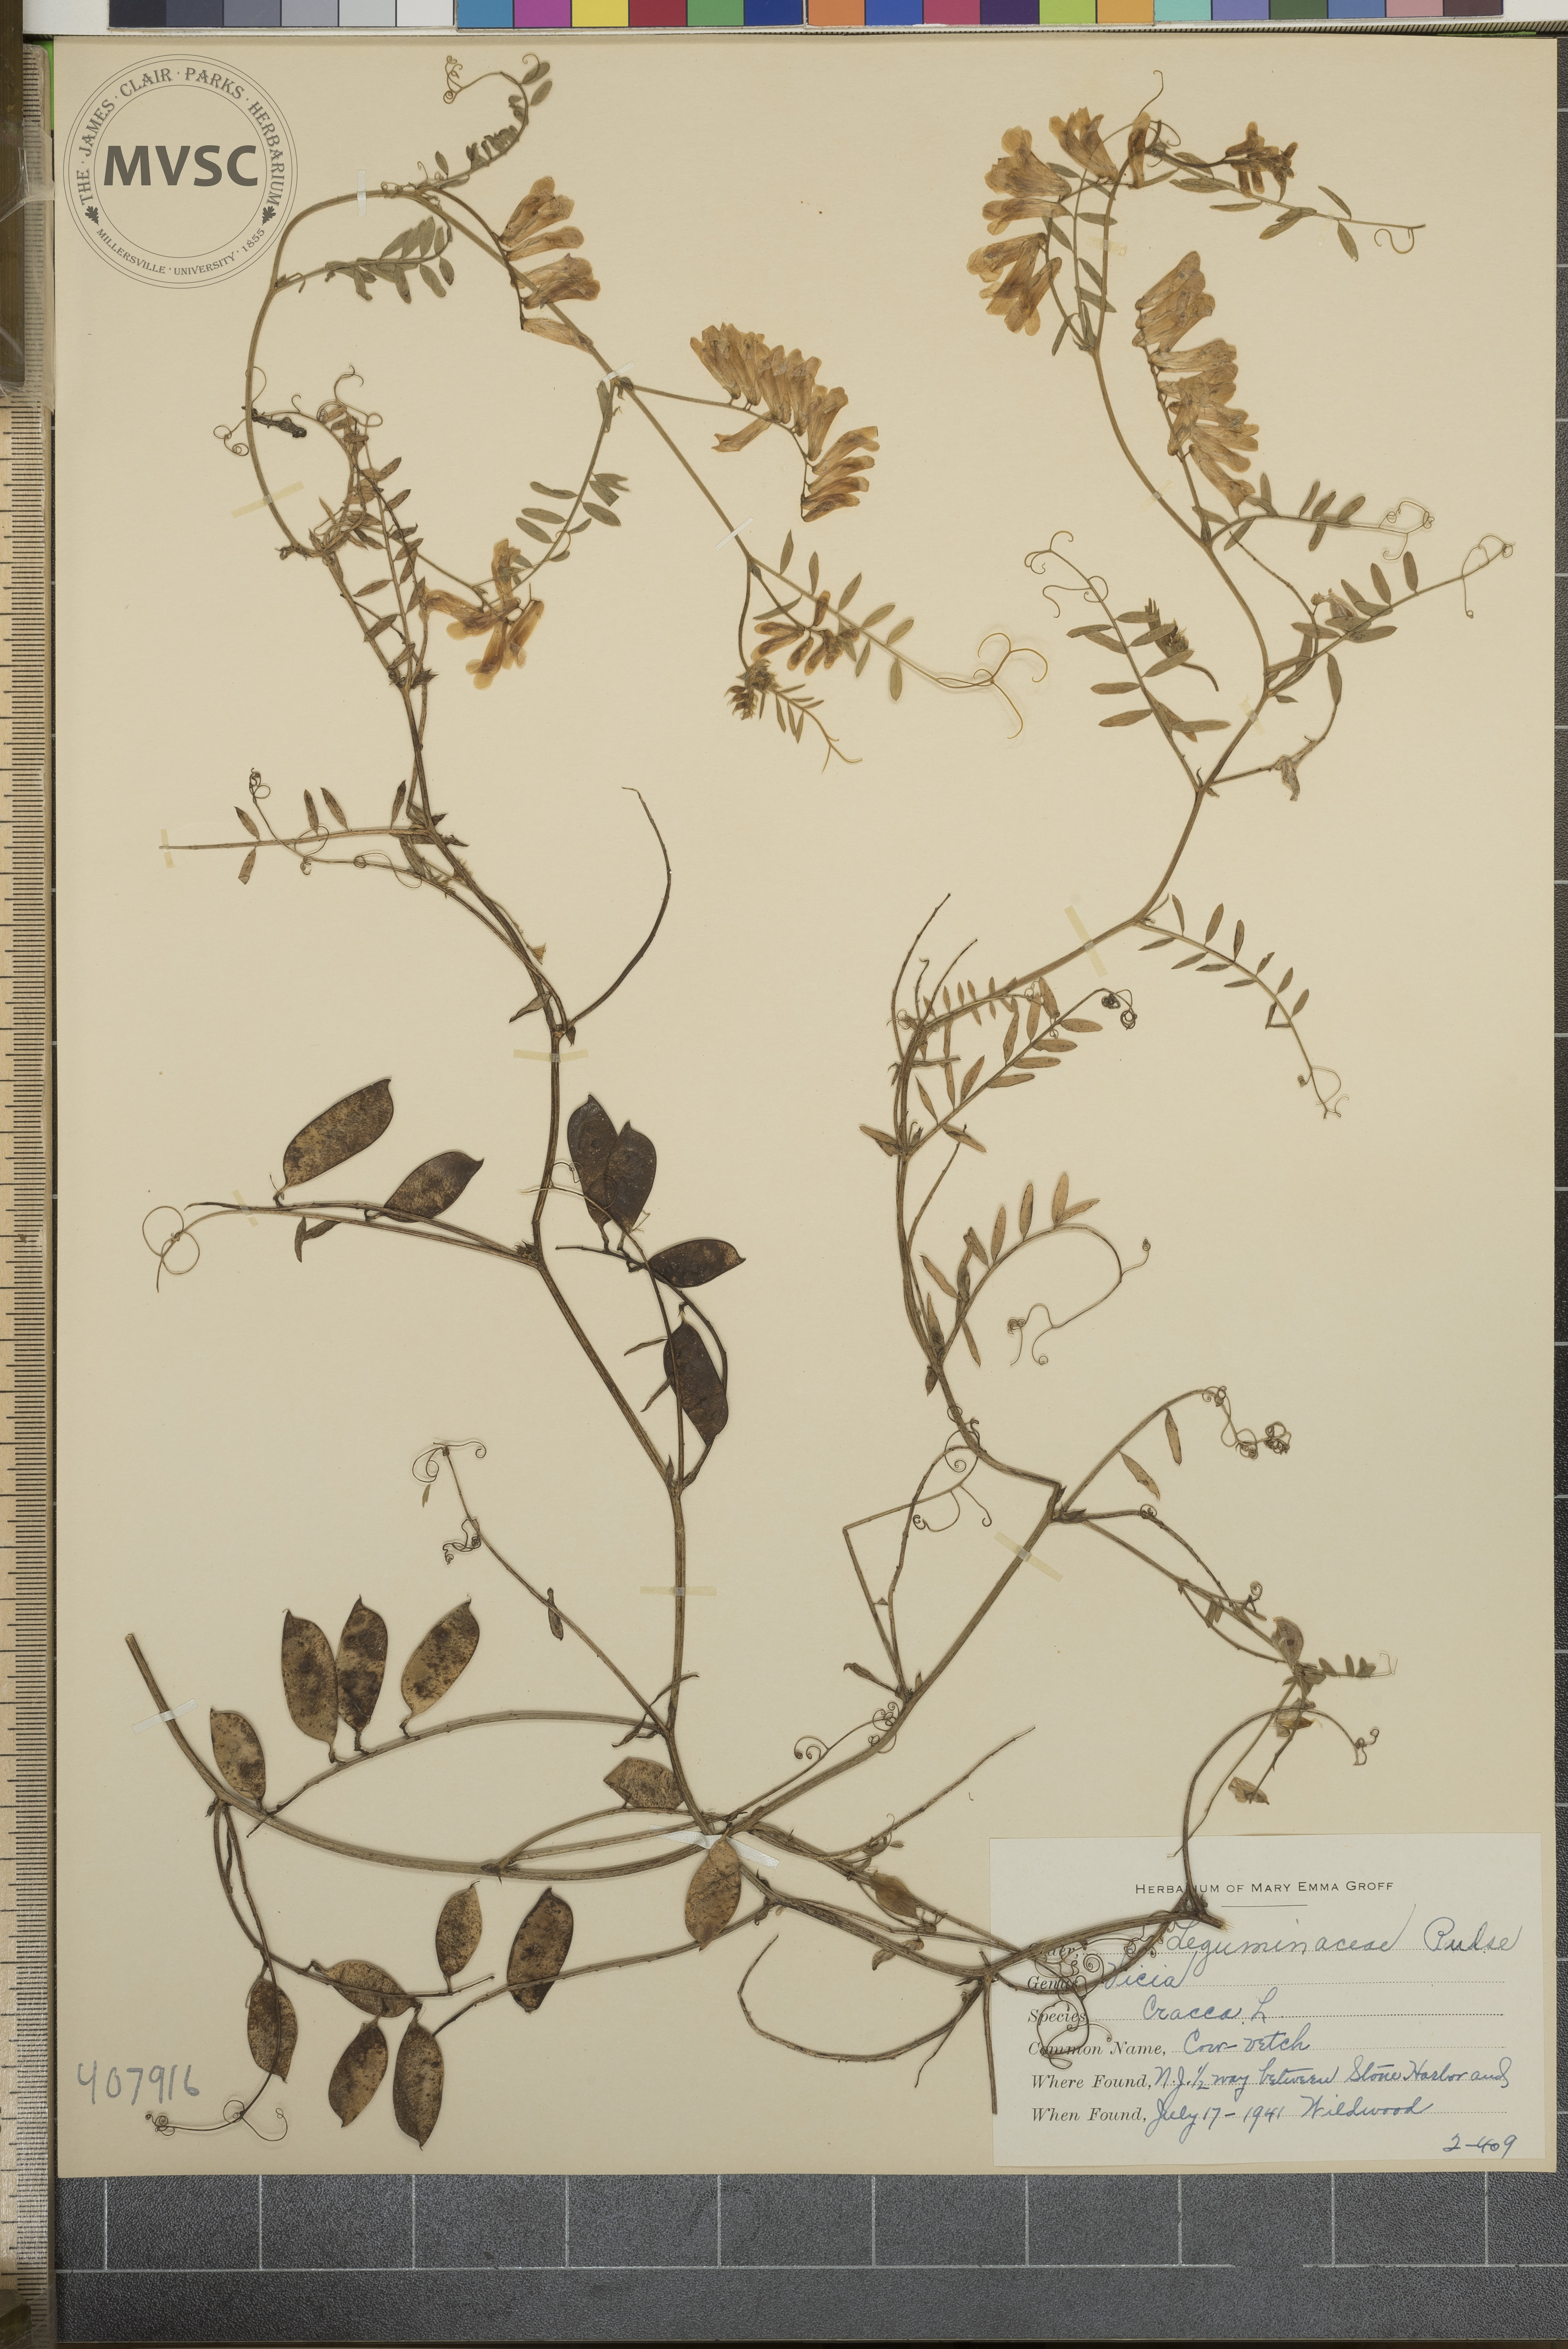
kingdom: Plantae
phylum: Tracheophyta
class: Magnoliopsida
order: Fabales
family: Fabaceae
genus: Vicia
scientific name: Vicia cracca
